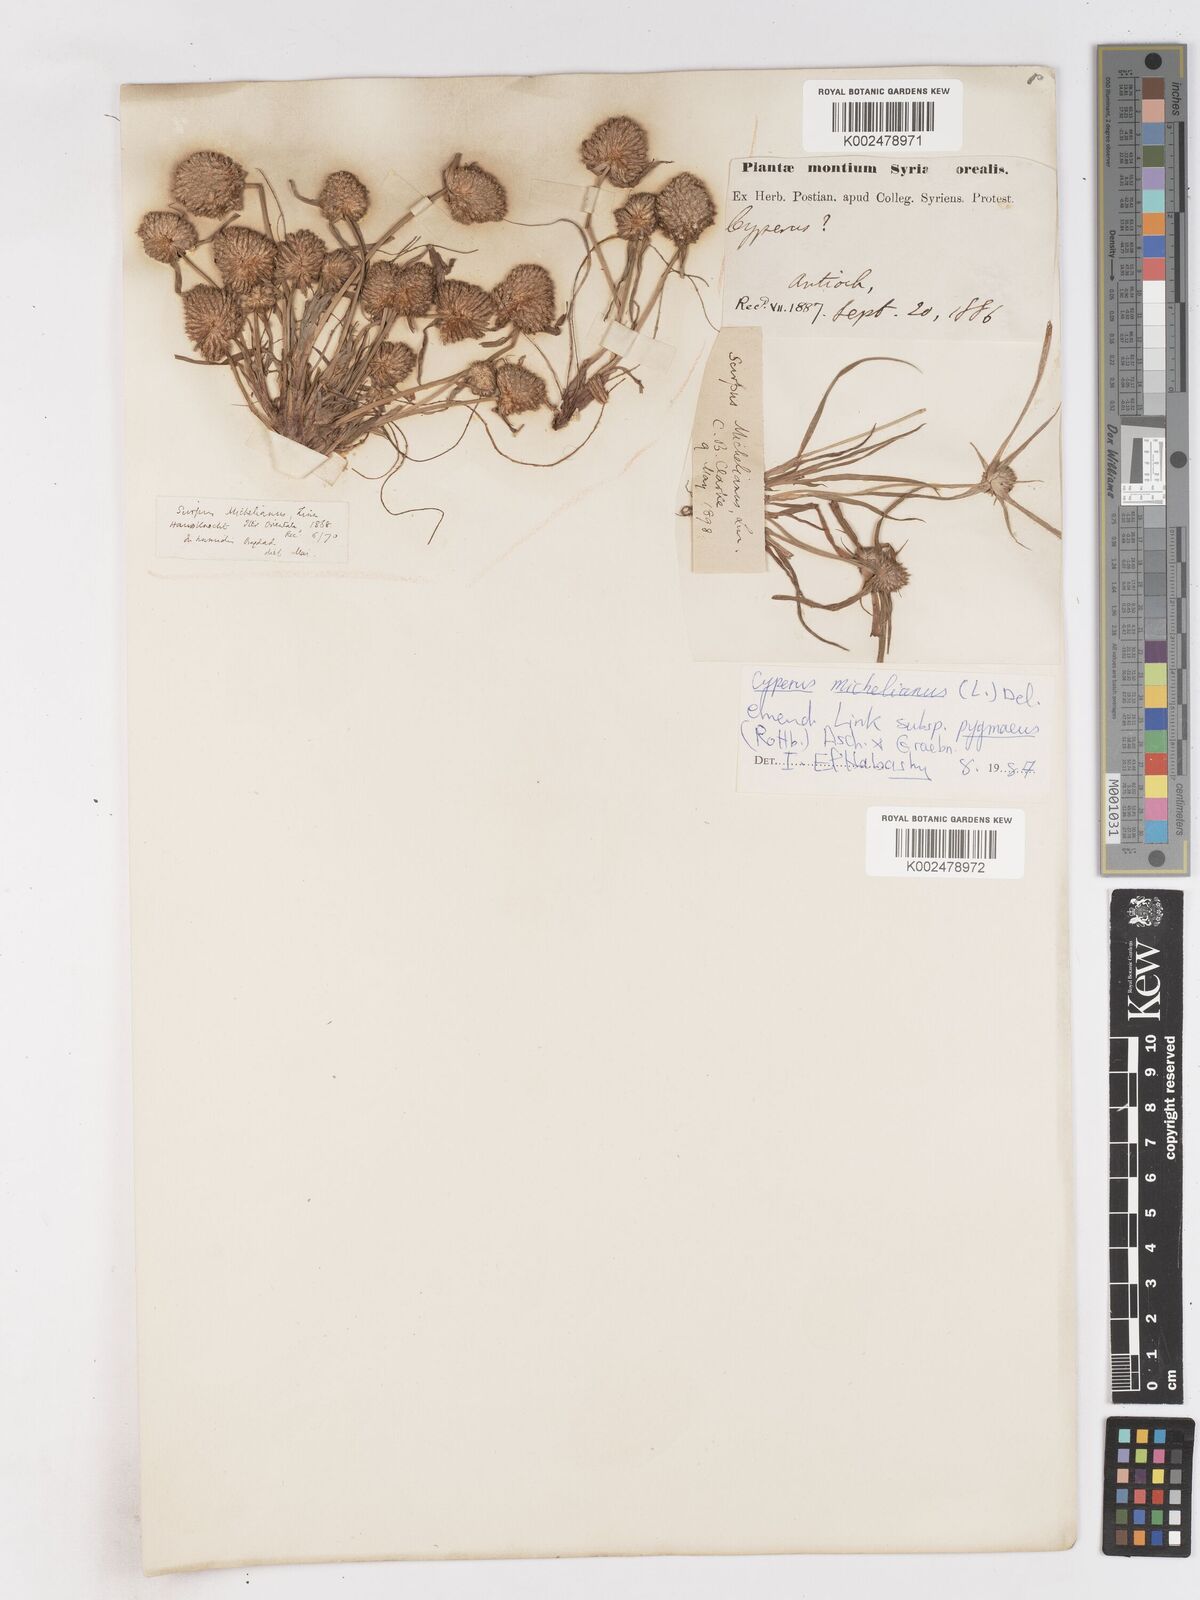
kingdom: Plantae
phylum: Tracheophyta
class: Liliopsida
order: Poales
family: Cyperaceae
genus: Cyperus
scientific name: Cyperus michelianus
